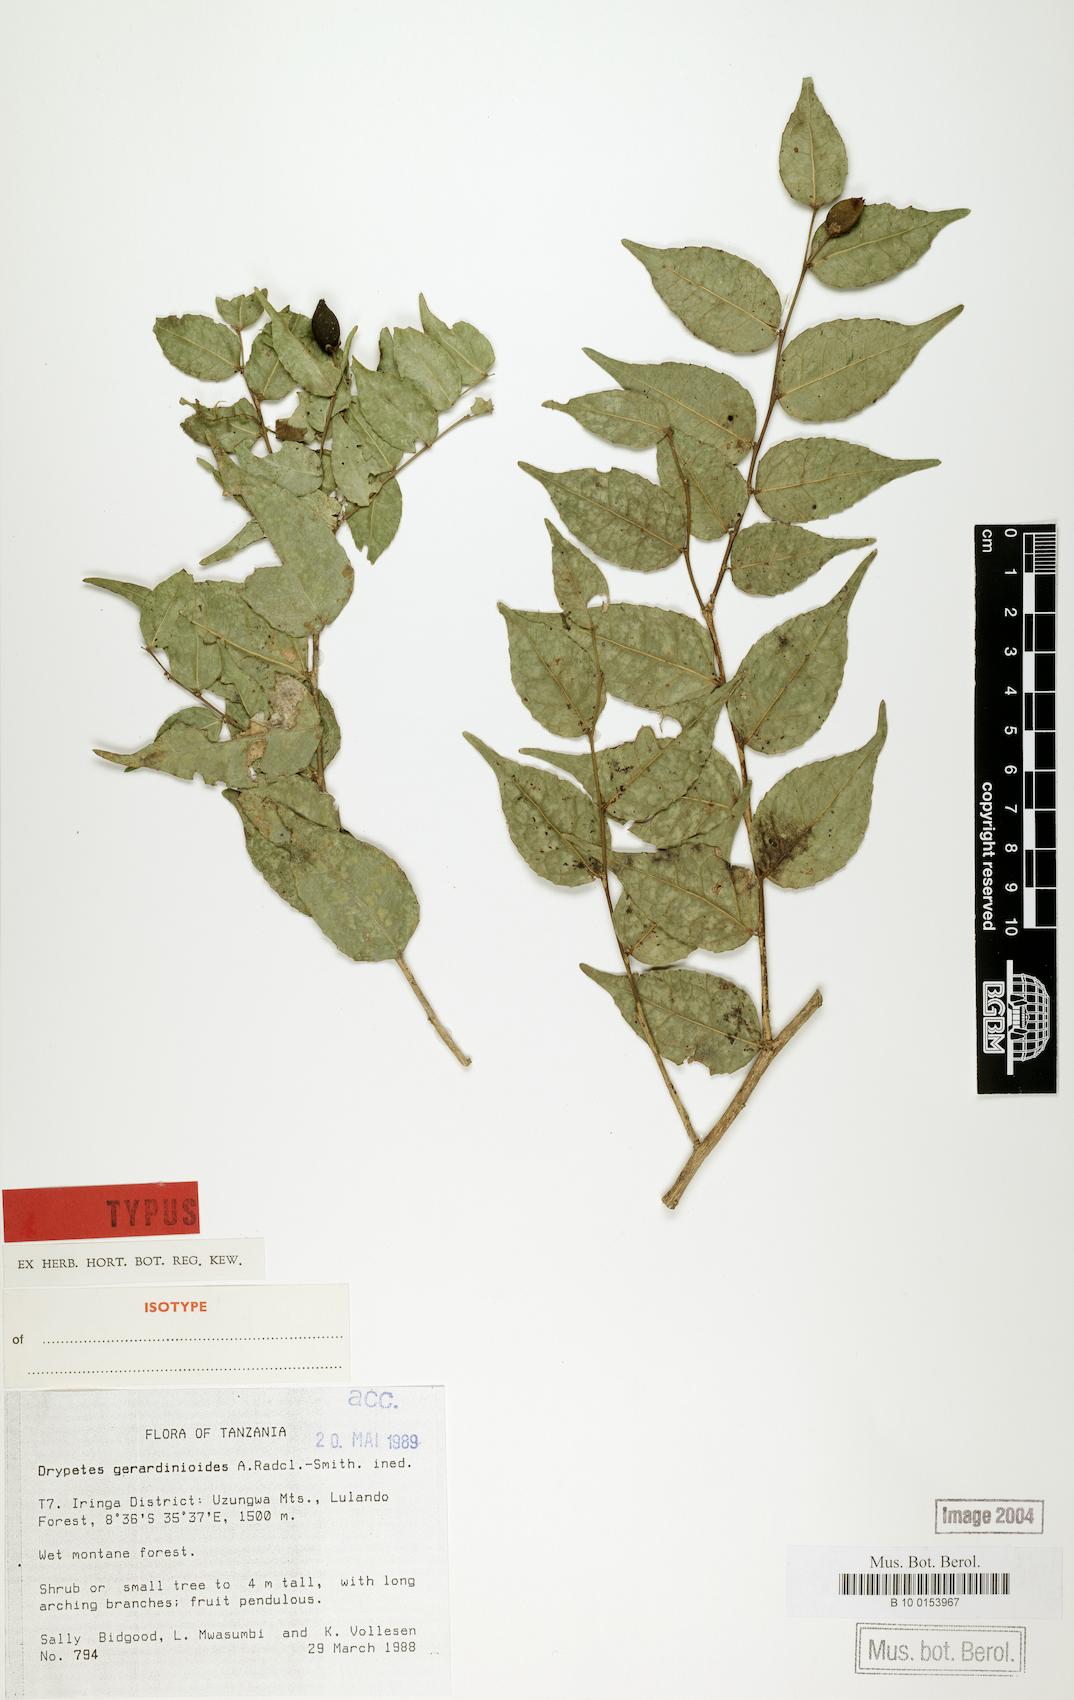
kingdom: Plantae
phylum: Tracheophyta
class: Magnoliopsida
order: Malpighiales
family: Putranjivaceae
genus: Drypetes
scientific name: Drypetes gerrardinoides
